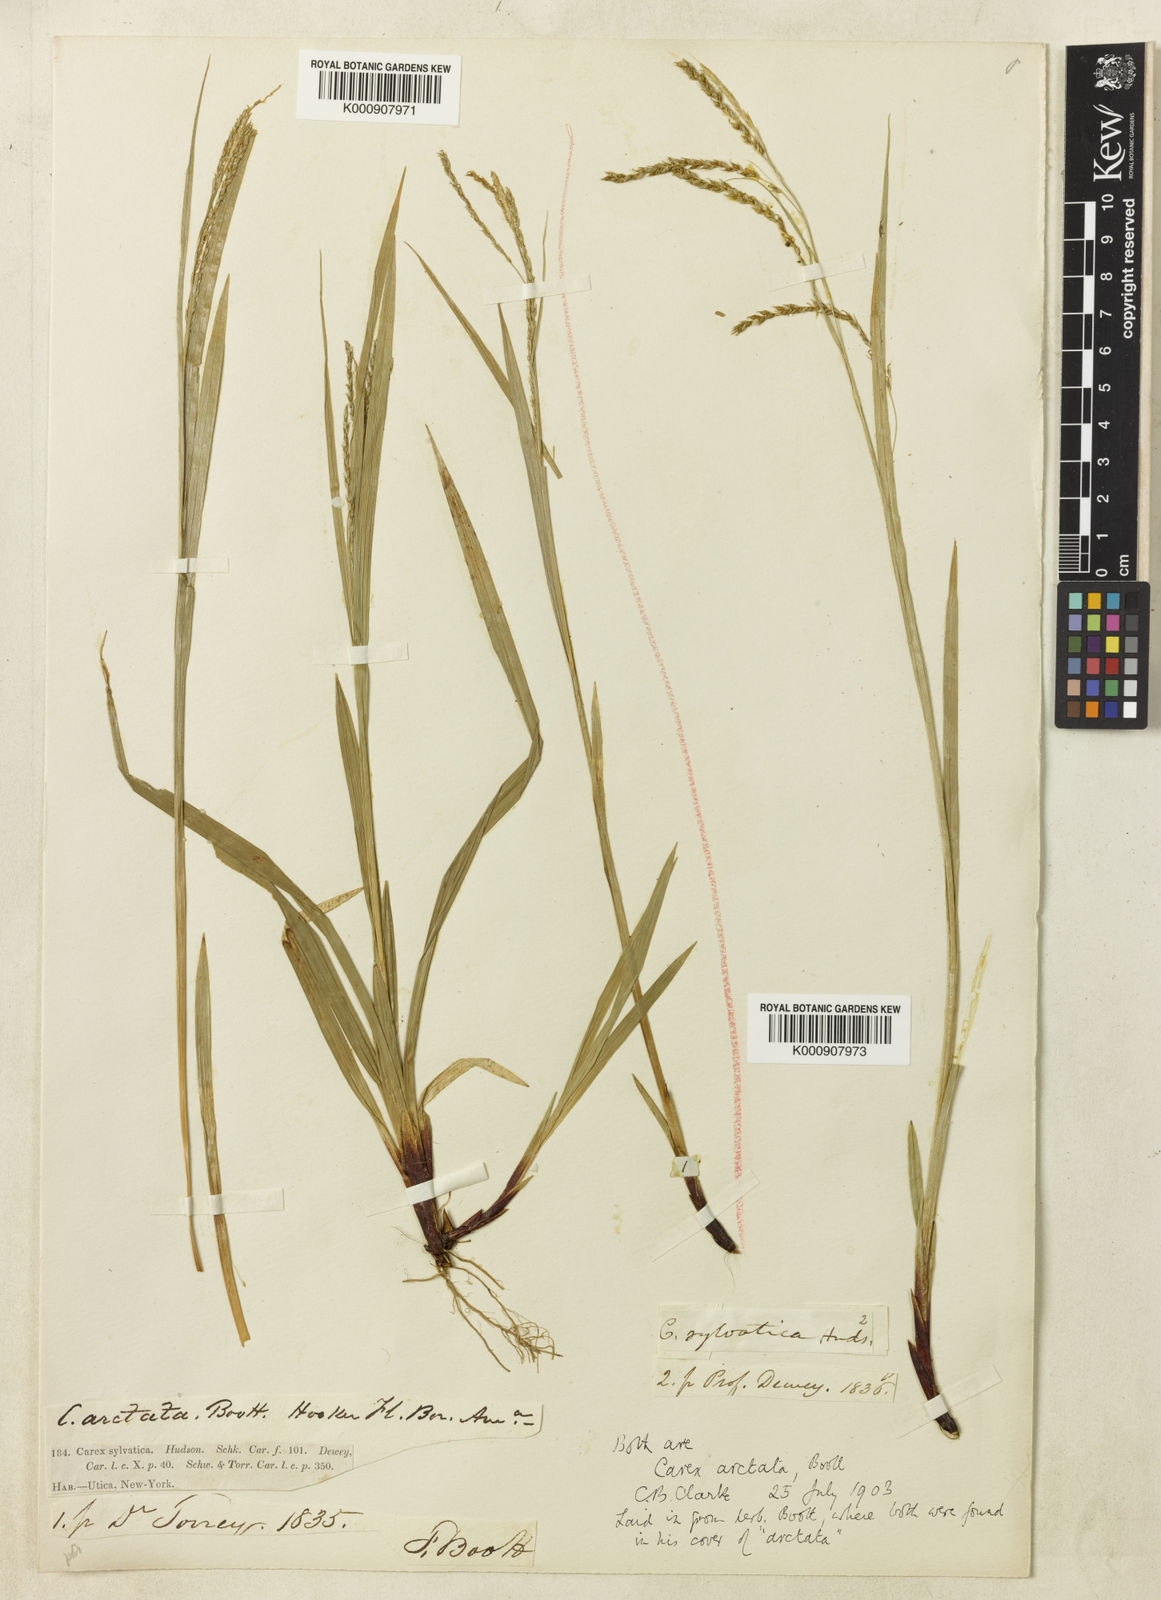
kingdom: Plantae
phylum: Tracheophyta
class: Liliopsida
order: Poales
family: Cyperaceae
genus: Carex
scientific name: Carex arctata
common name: Black sedge
